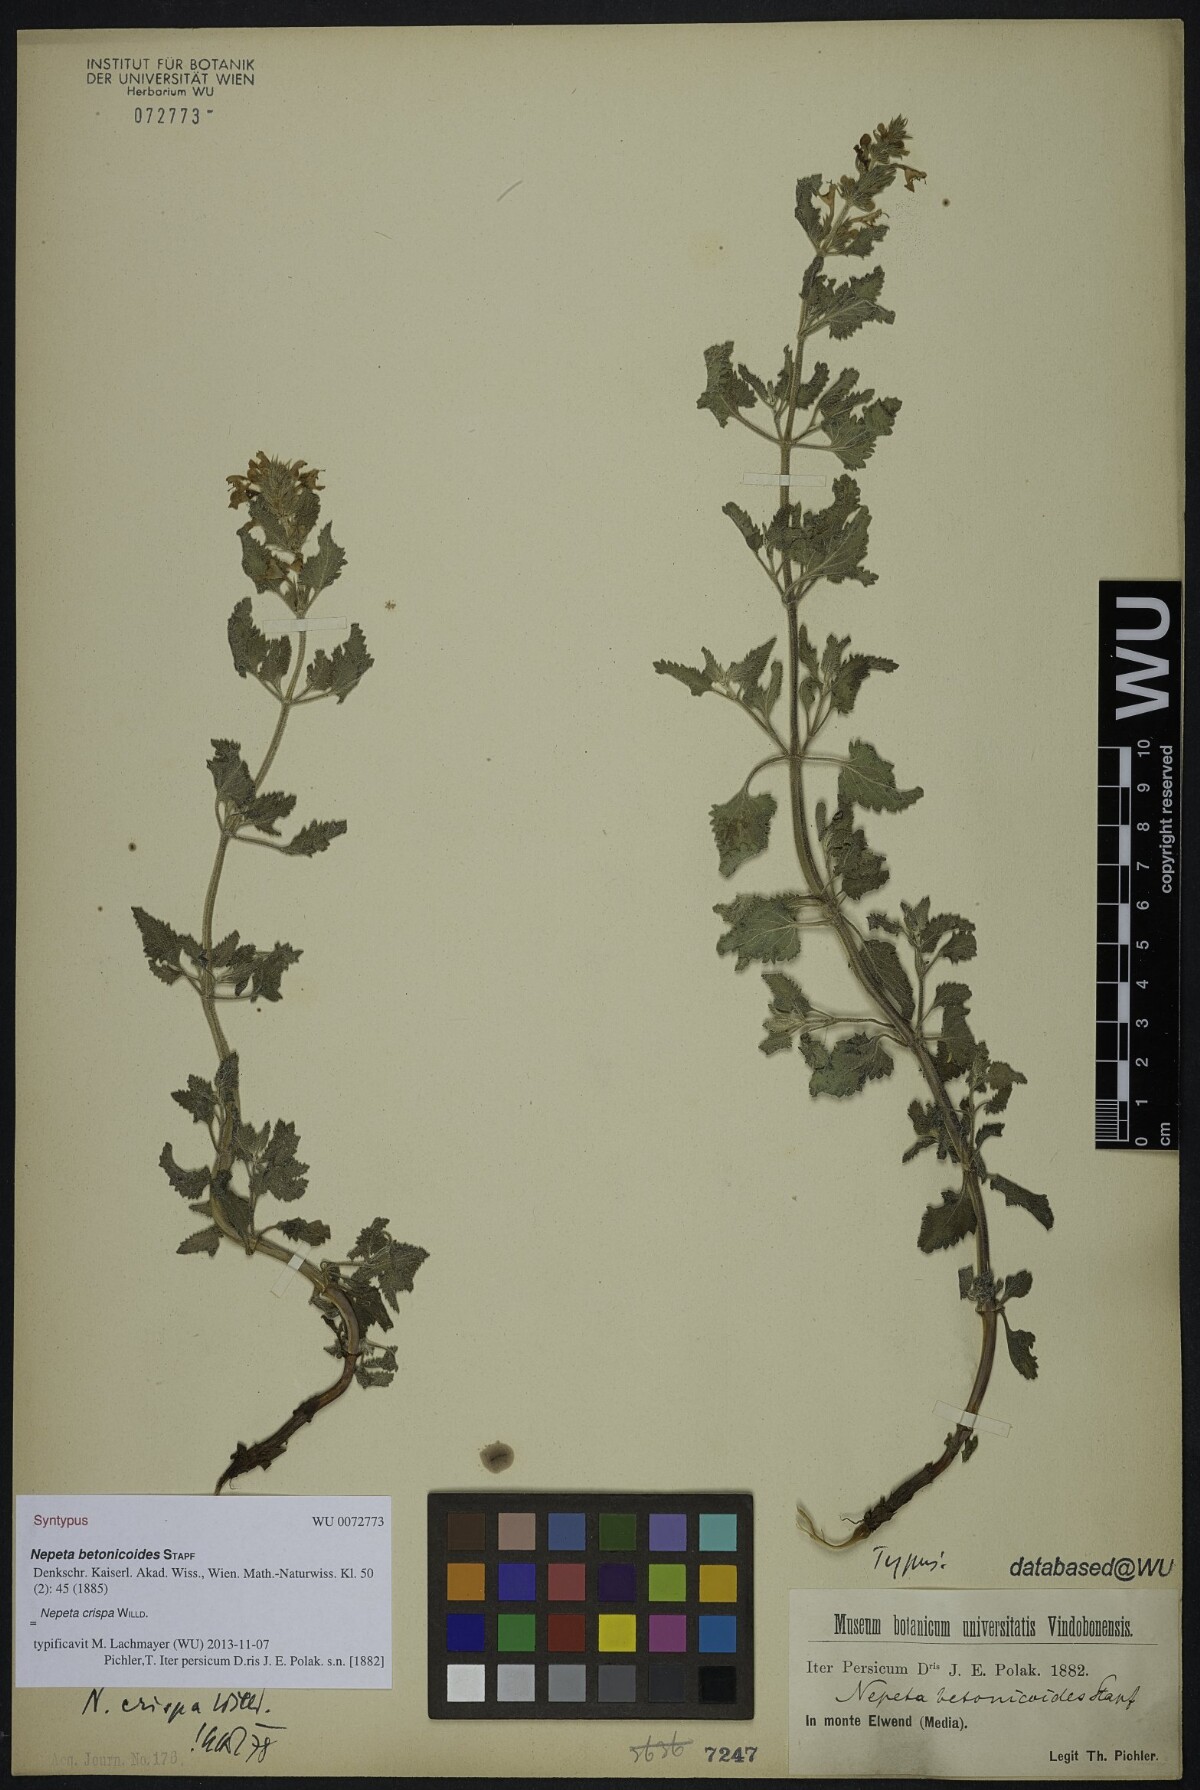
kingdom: Plantae
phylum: Tracheophyta
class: Magnoliopsida
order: Lamiales
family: Lamiaceae
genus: Nepeta
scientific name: Nepeta crispa
